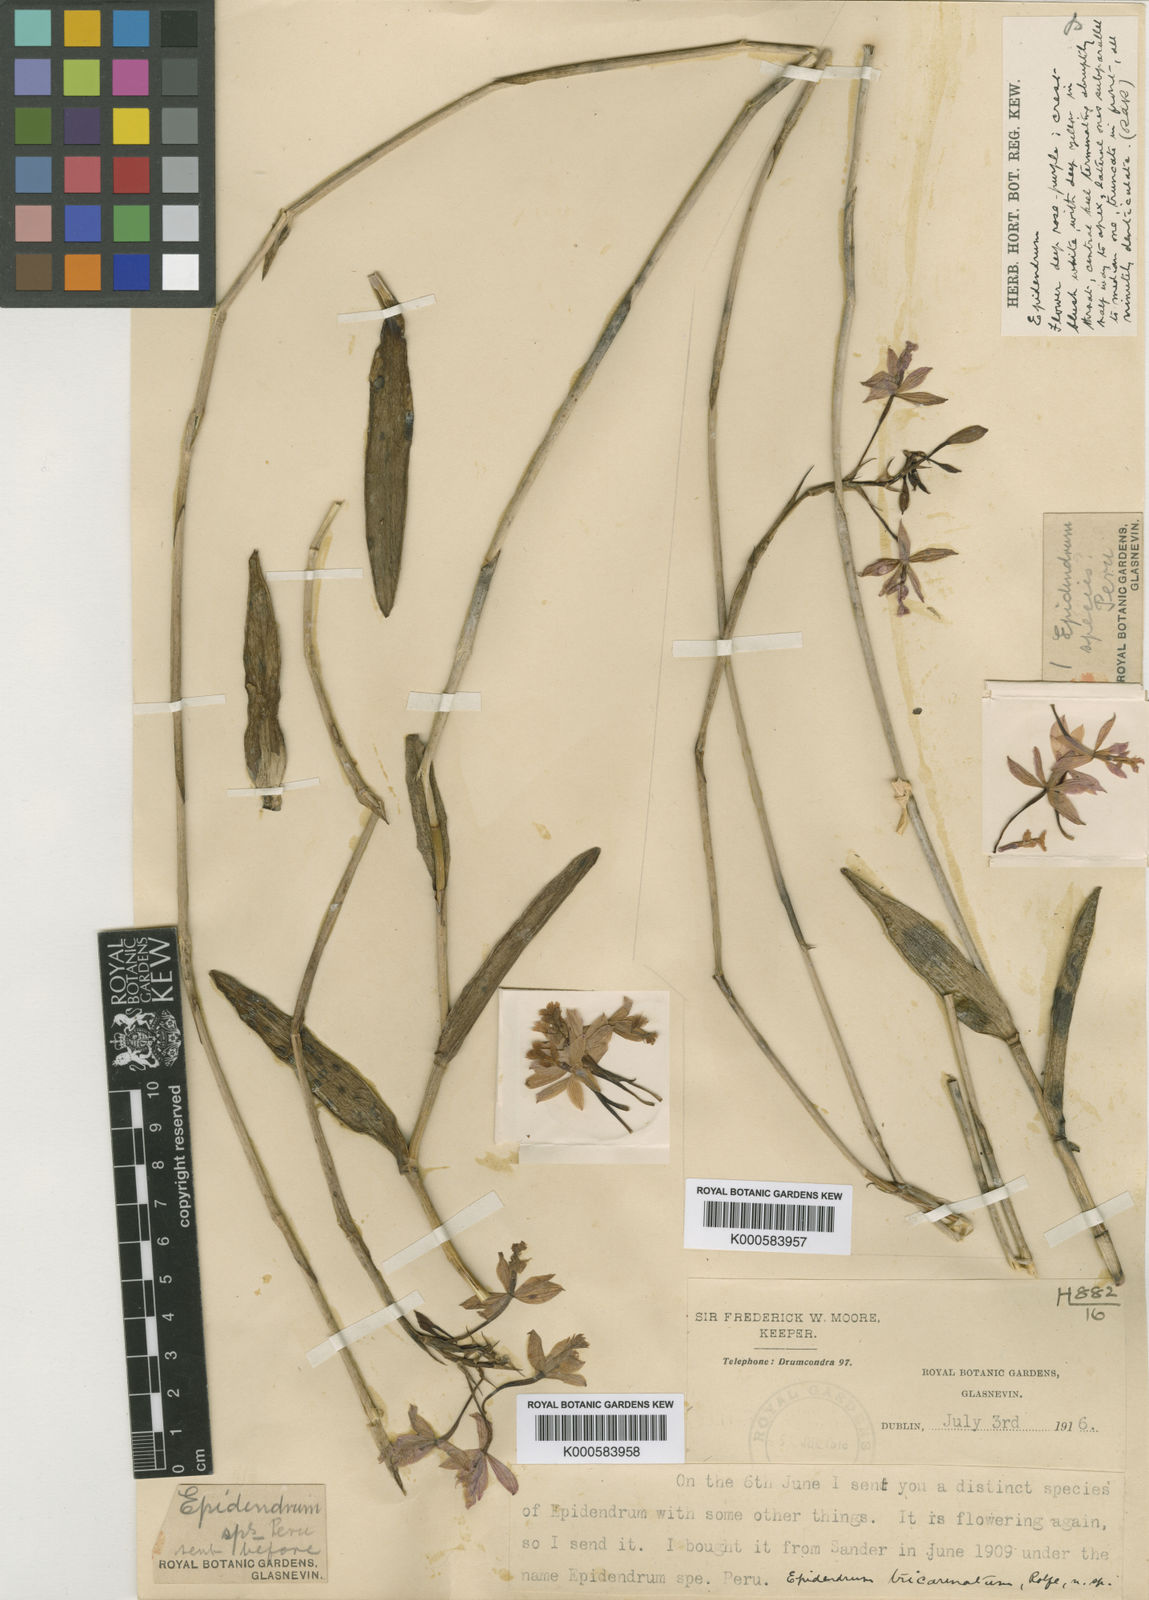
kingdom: Plantae
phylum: Tracheophyta
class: Liliopsida
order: Asparagales
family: Orchidaceae
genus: Epidendrum
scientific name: Epidendrum macrocyphum
